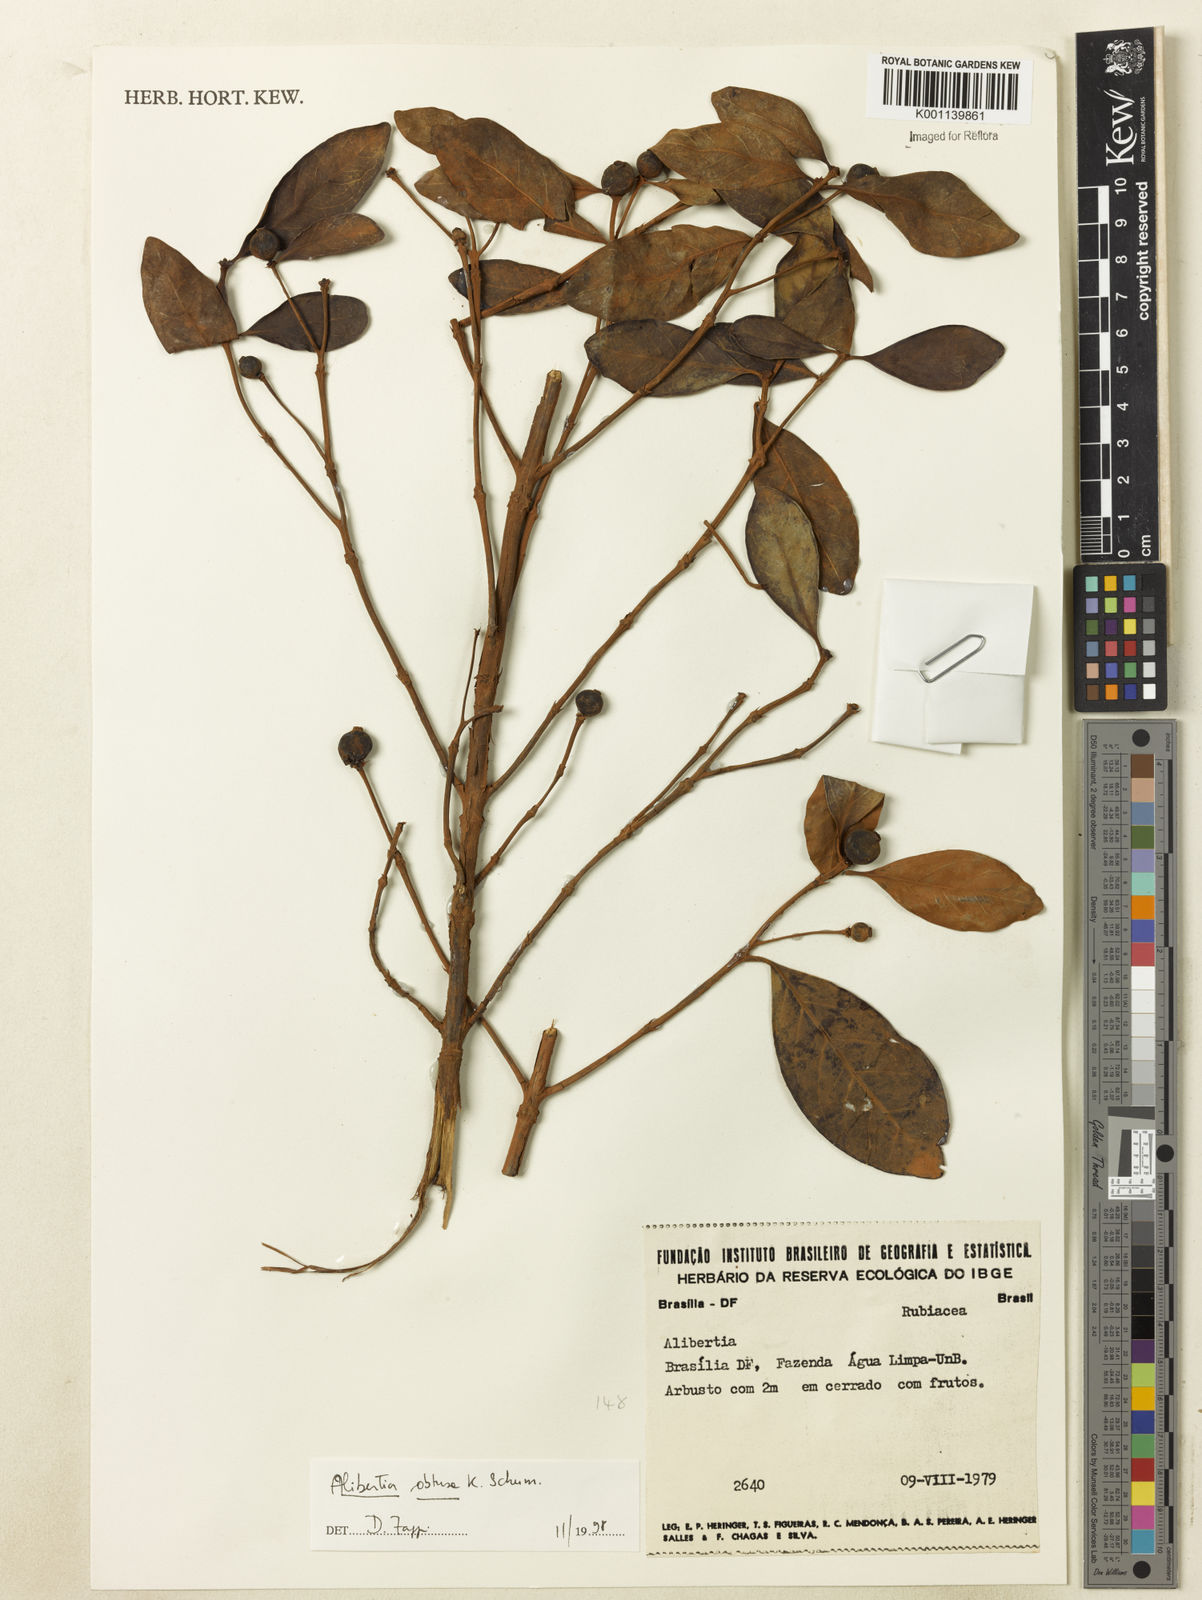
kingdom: Plantae
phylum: Tracheophyta
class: Magnoliopsida
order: Gentianales
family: Rubiaceae
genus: Cordiera
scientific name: Cordiera obtusa
